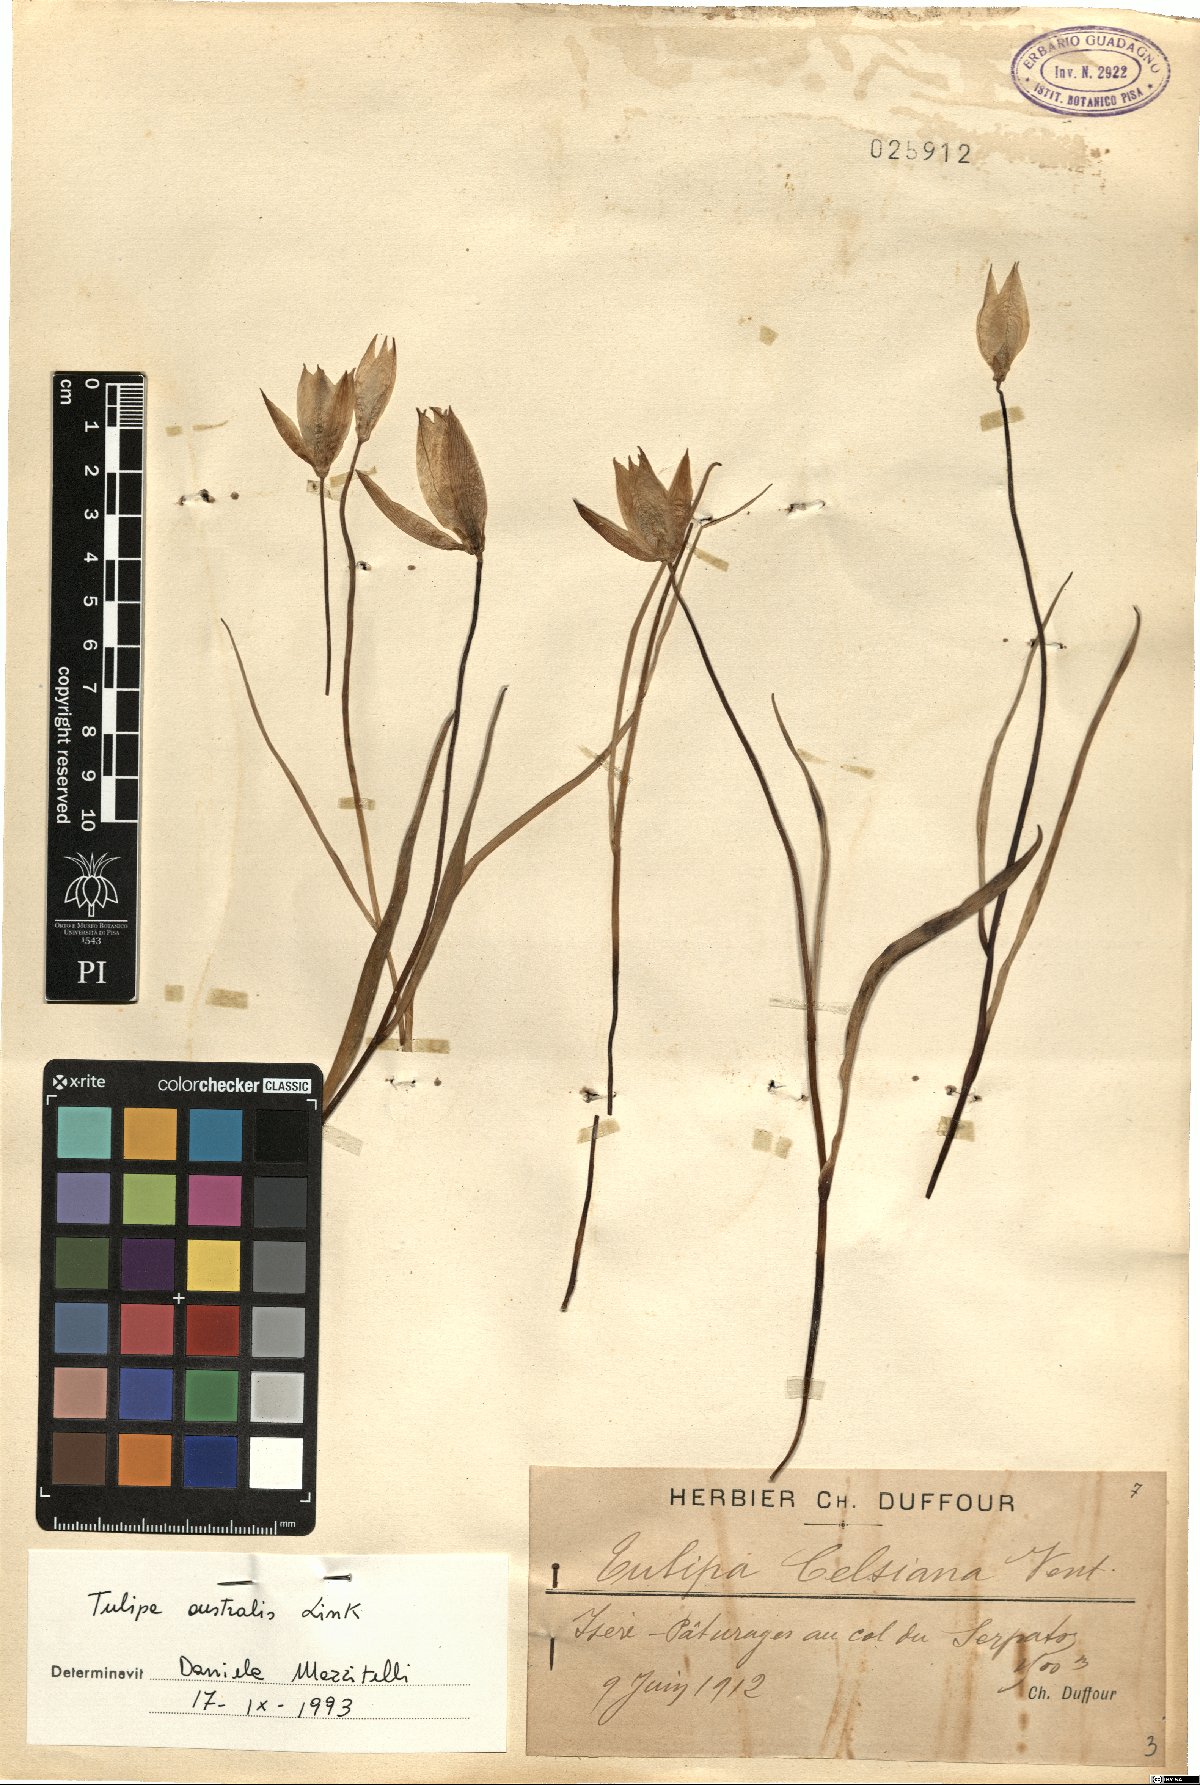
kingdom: Plantae
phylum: Tracheophyta
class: Liliopsida
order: Liliales
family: Liliaceae
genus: Tulipa
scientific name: Tulipa sylvestris
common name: Wild tulip
